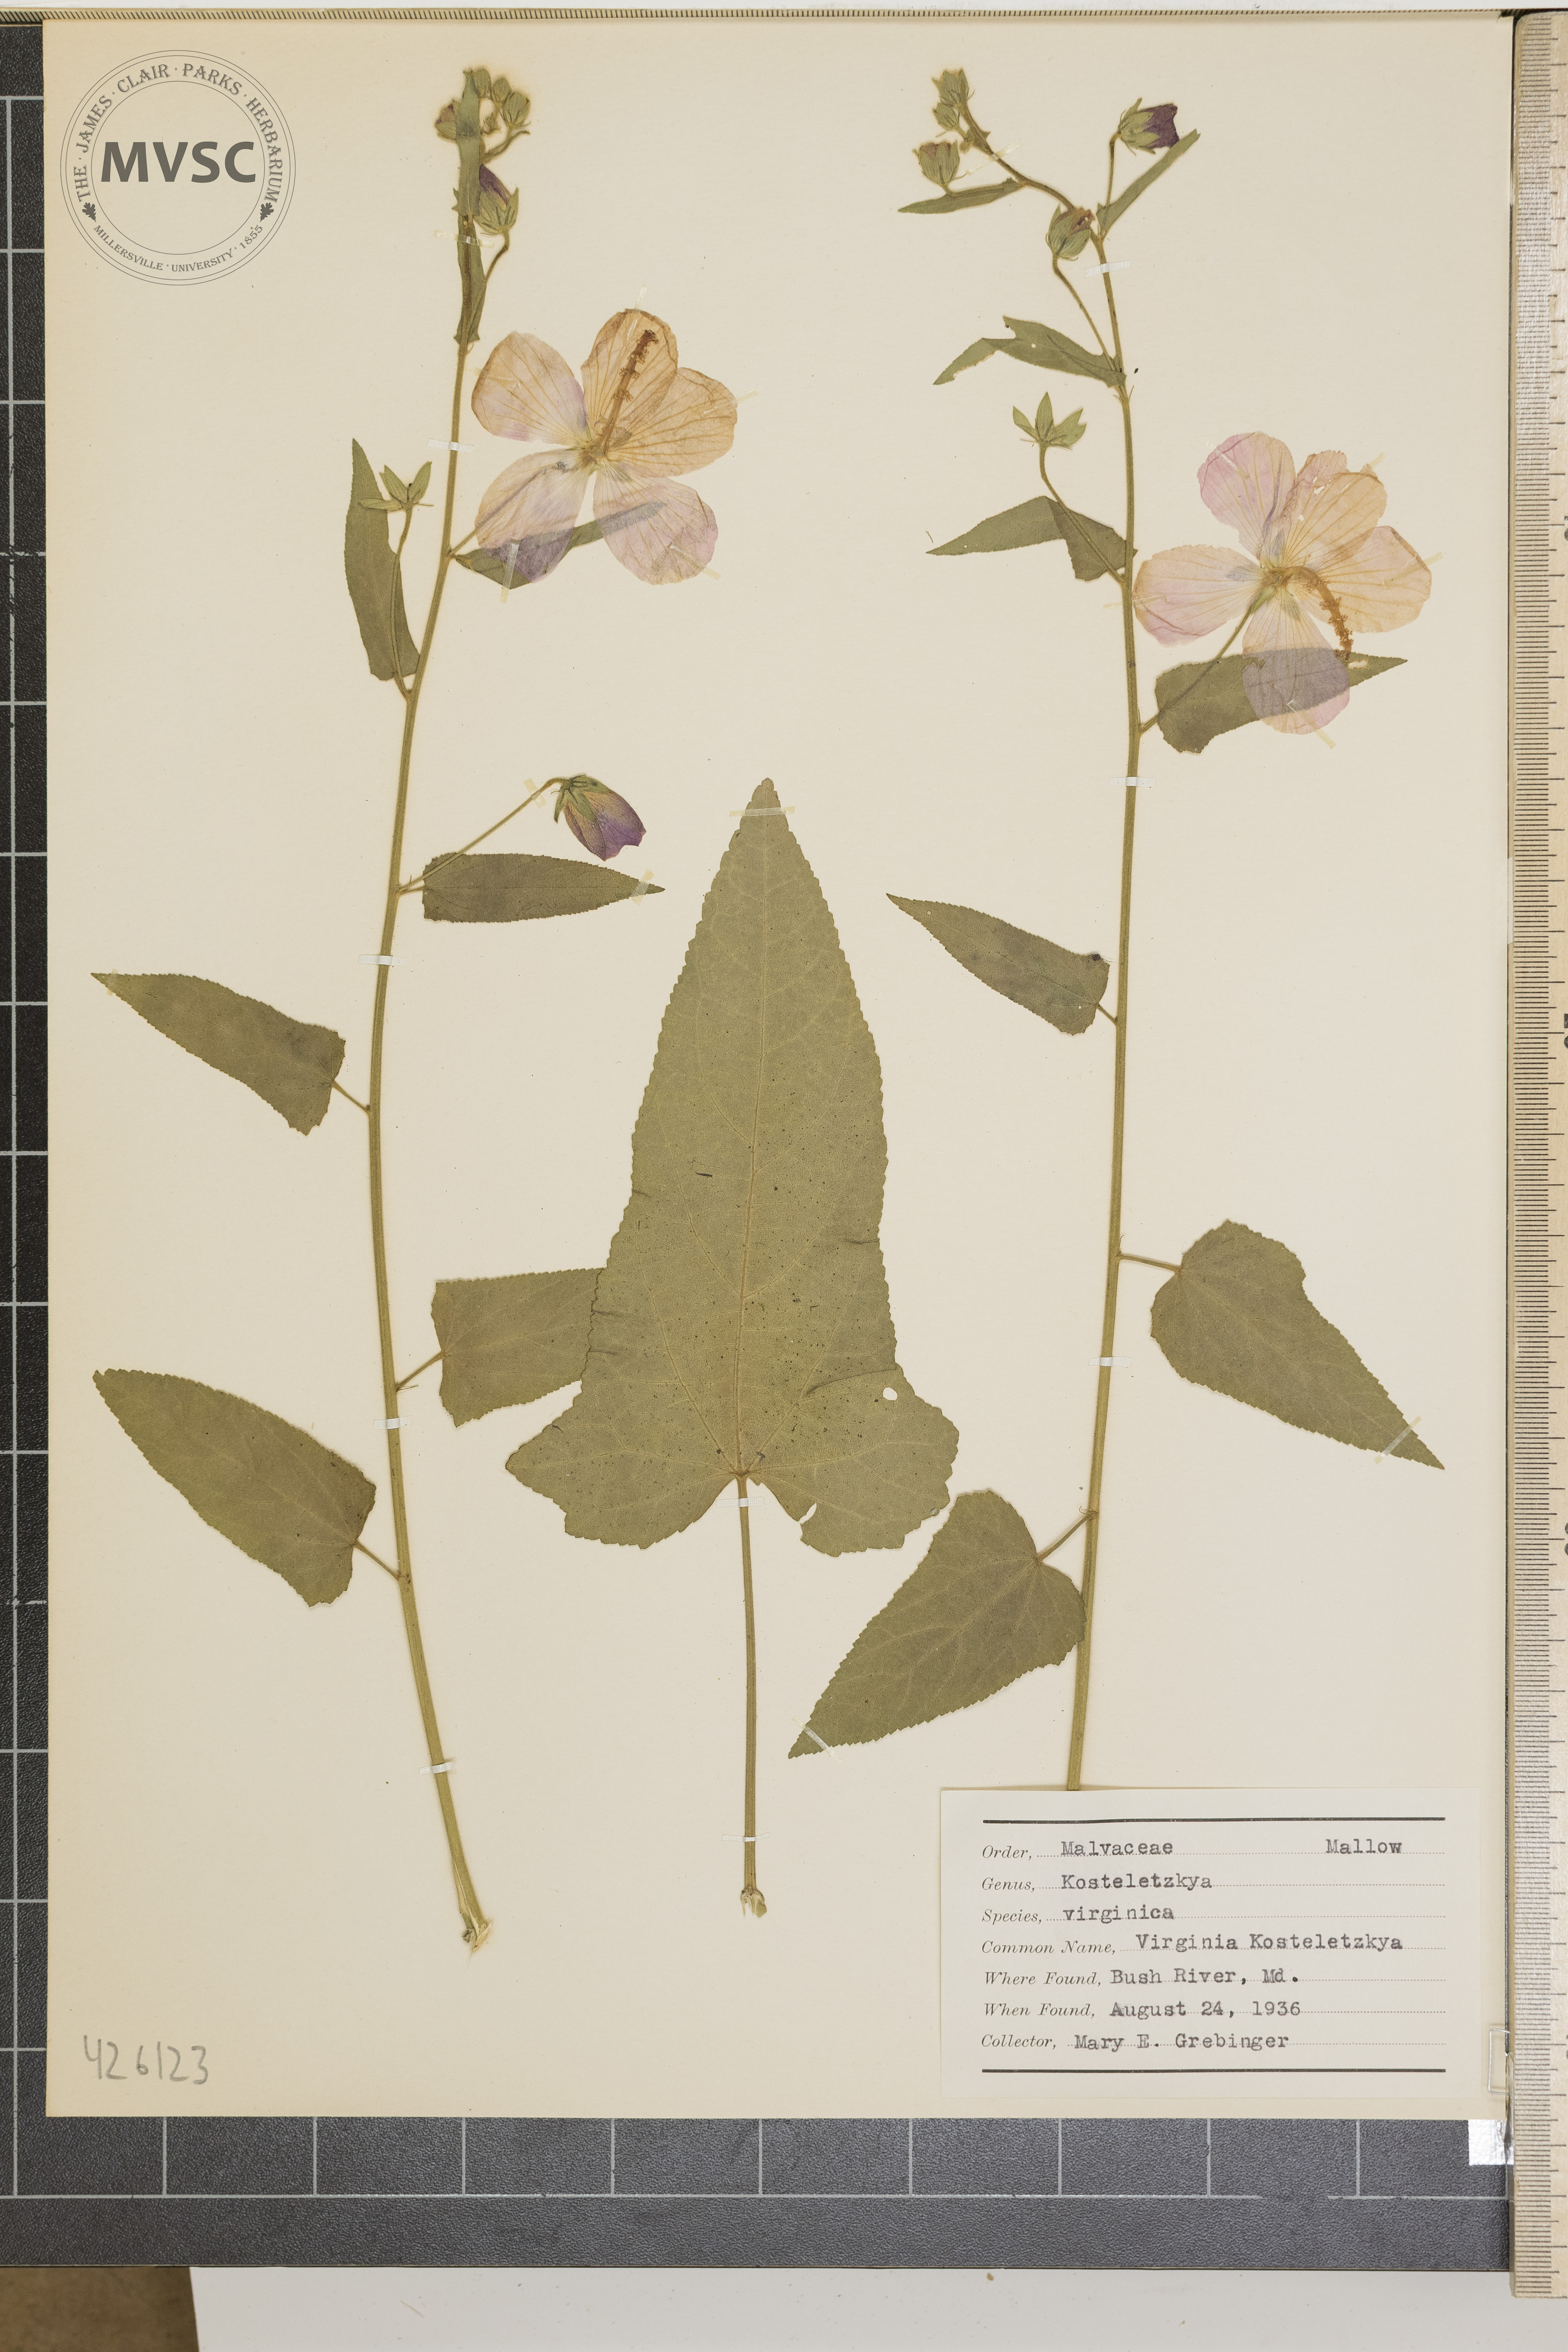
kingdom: Plantae
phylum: Tracheophyta
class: Magnoliopsida
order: Malvales
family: Malvaceae
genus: Kosteletzkya
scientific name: Kosteletzkya pentacarpos
